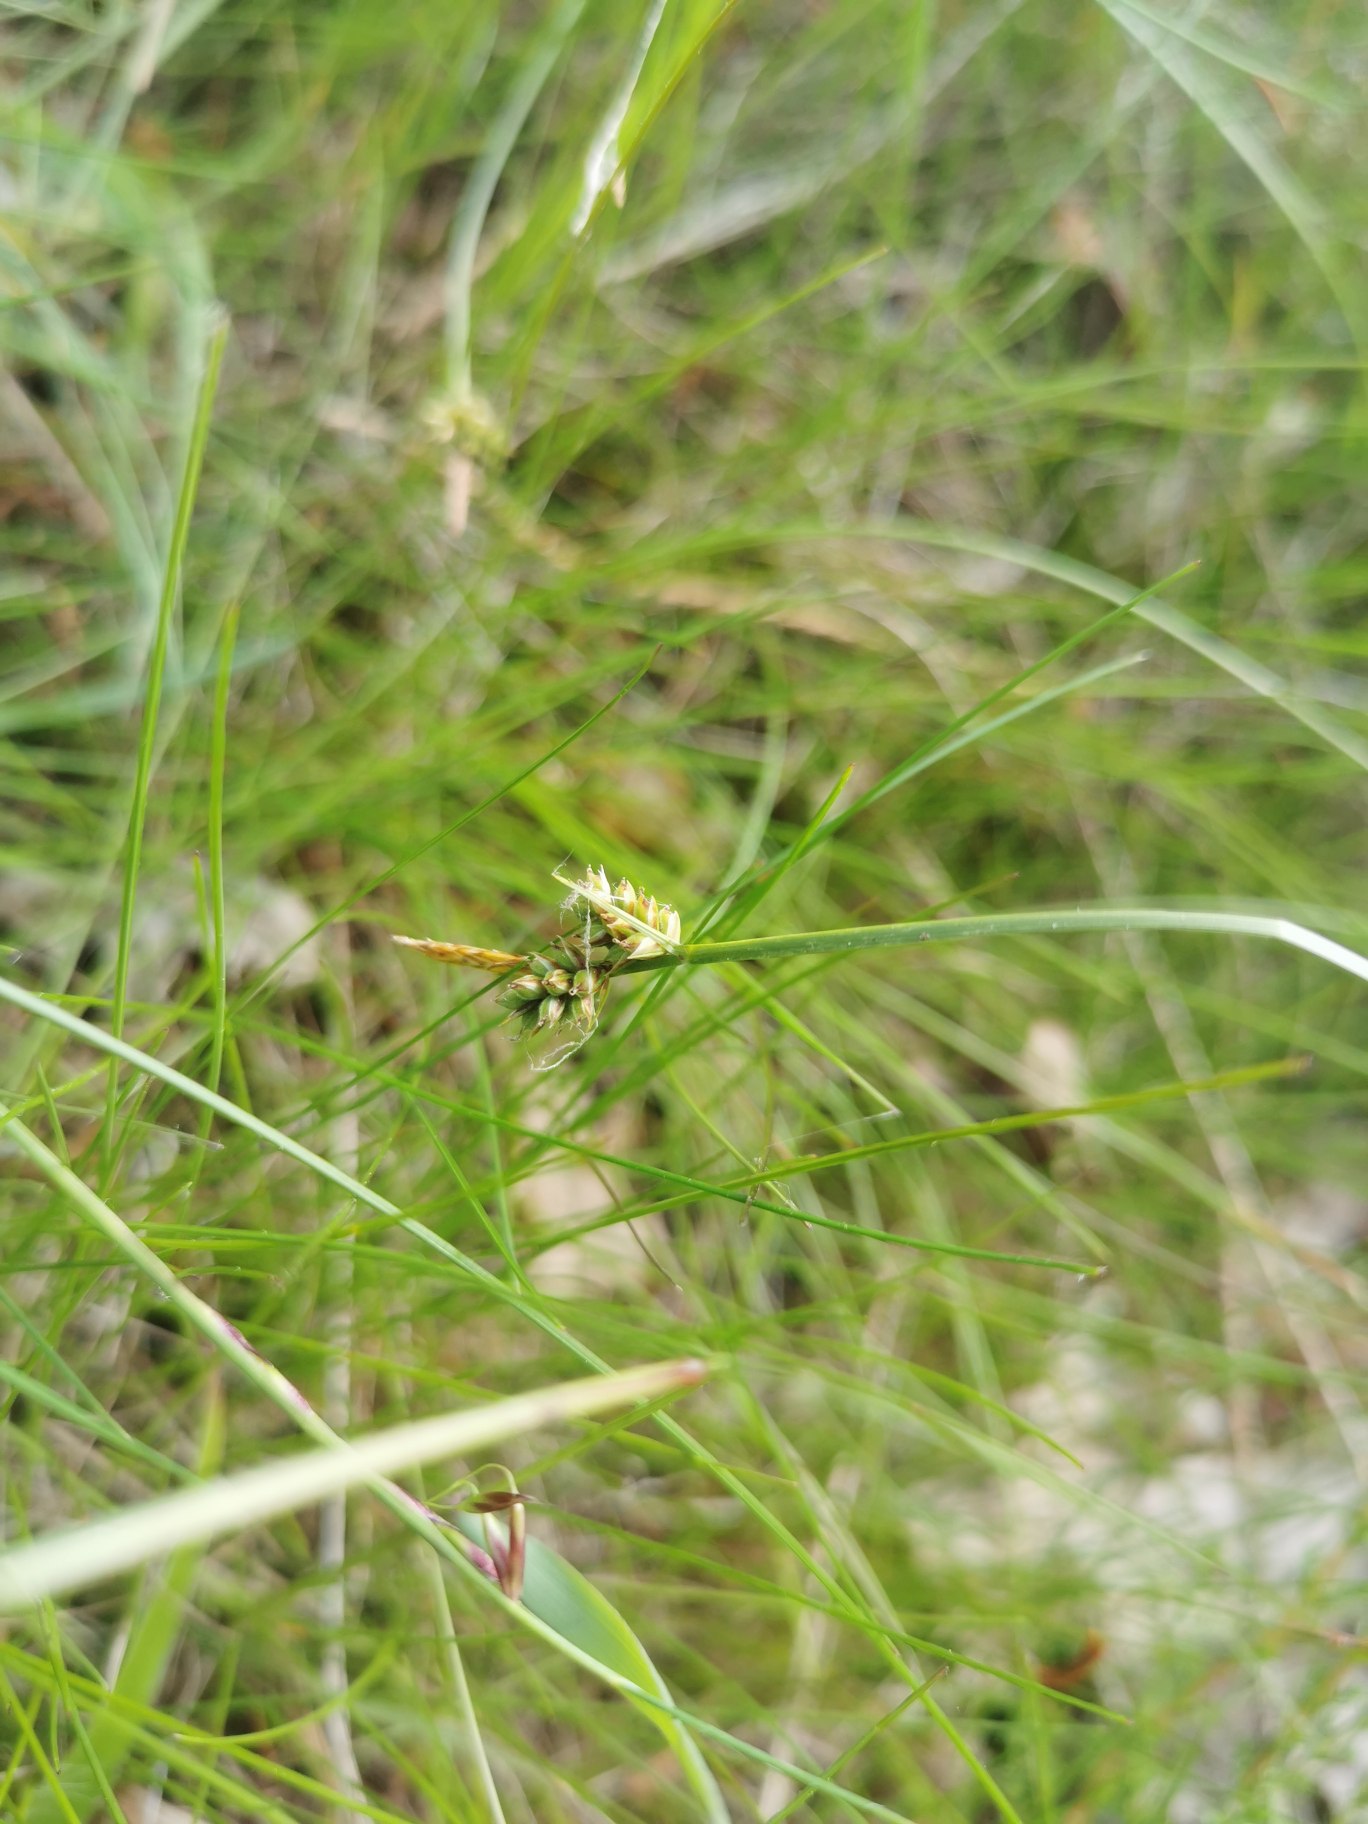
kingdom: Plantae
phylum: Tracheophyta
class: Liliopsida
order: Poales
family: Cyperaceae
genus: Carex
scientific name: Carex pilulifera
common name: Pille-star
